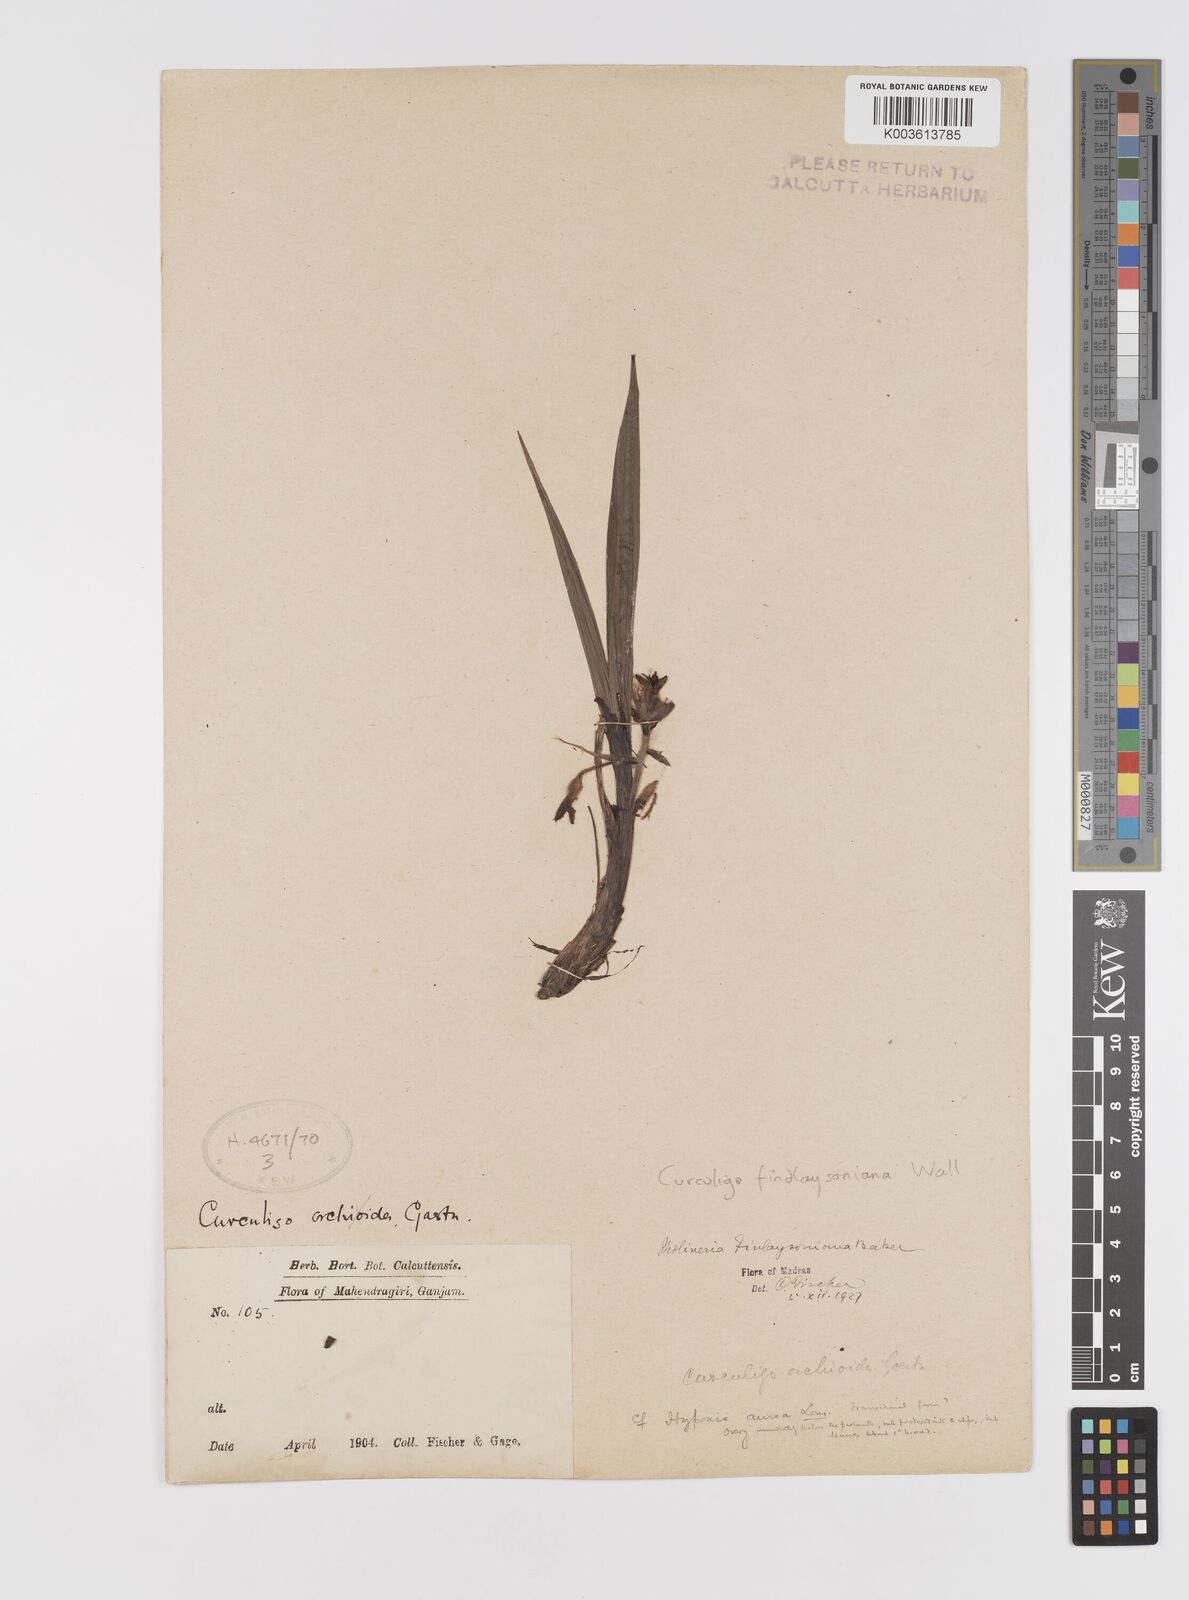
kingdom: Plantae
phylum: Tracheophyta
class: Liliopsida
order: Asparagales
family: Hypoxidaceae
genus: Curculigo
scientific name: Curculigo trichocarpa
